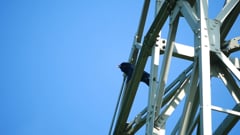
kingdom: Animalia
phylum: Chordata
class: Aves
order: Passeriformes
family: Corvidae
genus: Corvus
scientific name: Corvus corax
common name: Common raven
